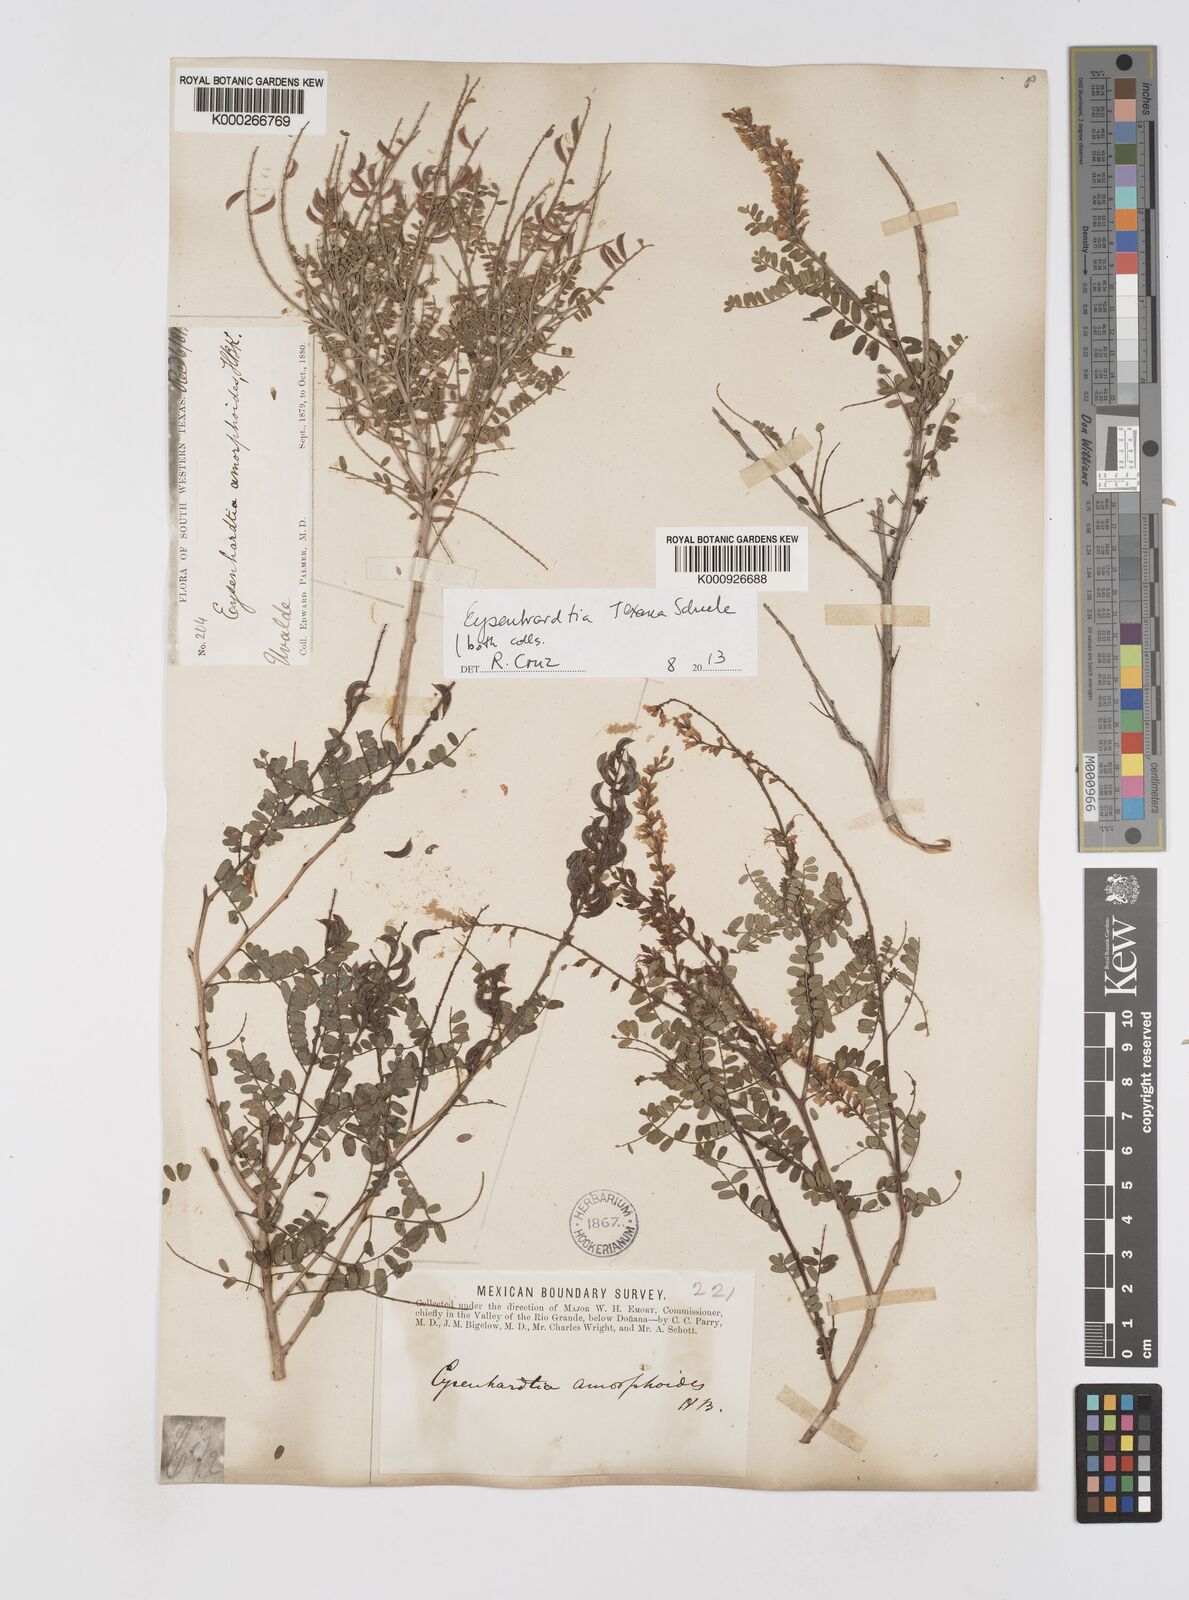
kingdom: Plantae
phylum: Tracheophyta
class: Magnoliopsida
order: Fabales
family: Fabaceae
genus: Eysenhardtia
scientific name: Eysenhardtia texana
